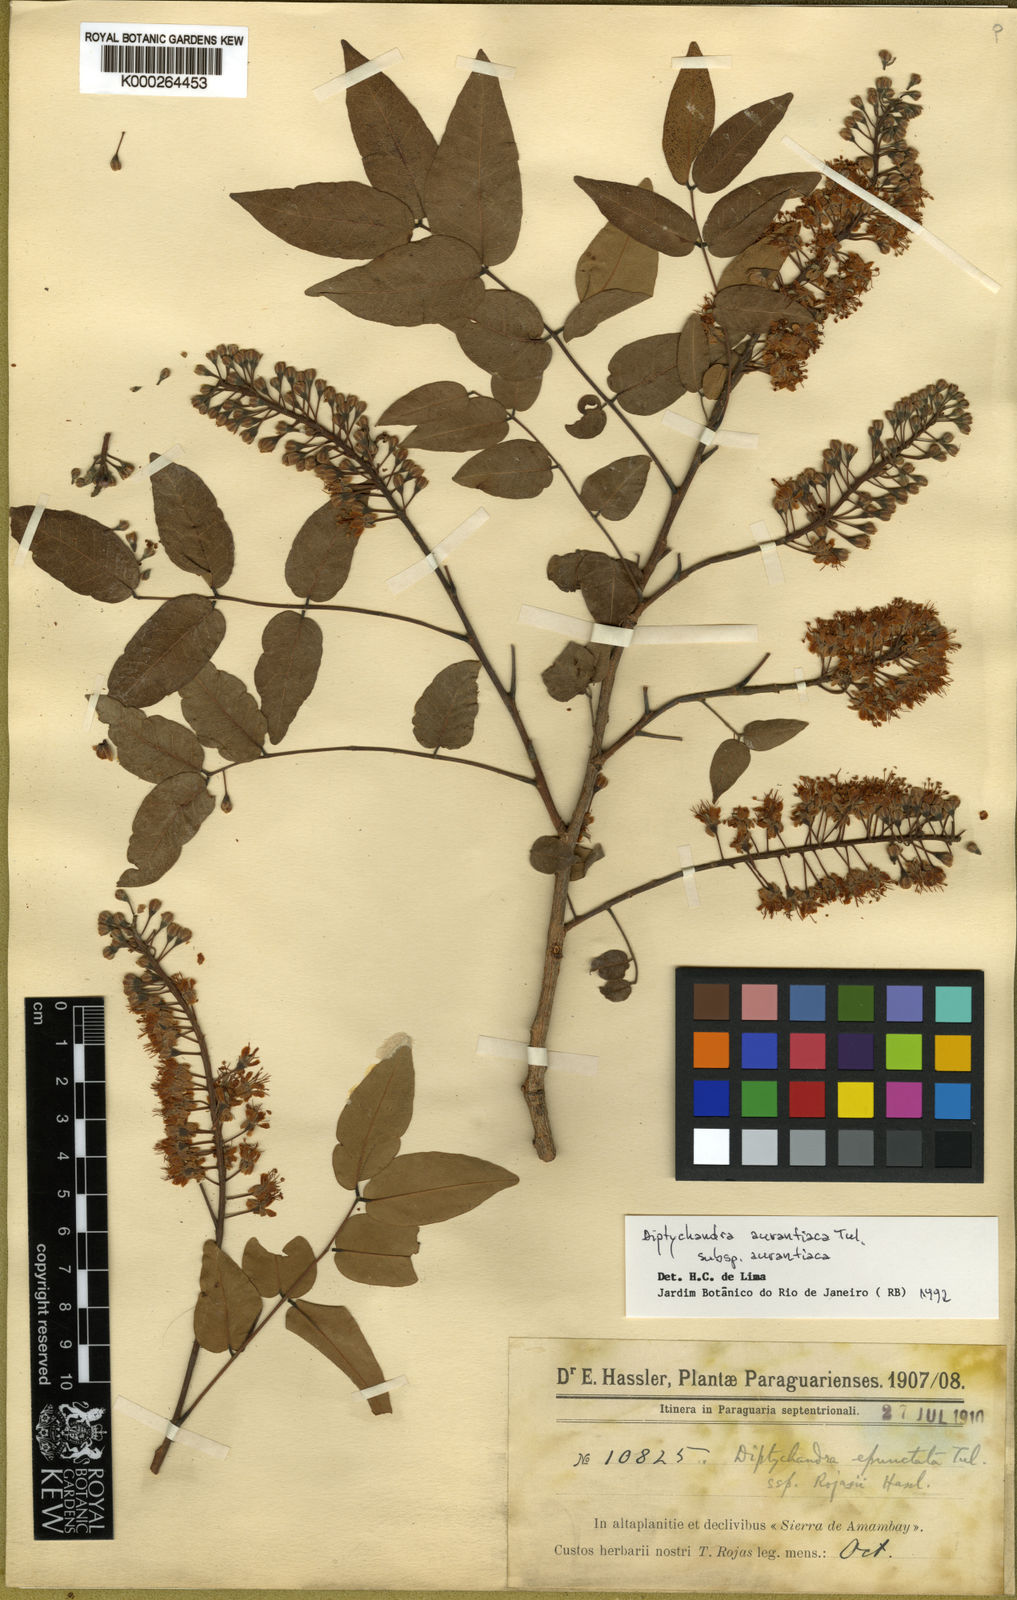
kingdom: Plantae
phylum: Tracheophyta
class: Magnoliopsida
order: Fabales
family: Fabaceae
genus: Diptychandra
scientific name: Diptychandra aurantiaca
